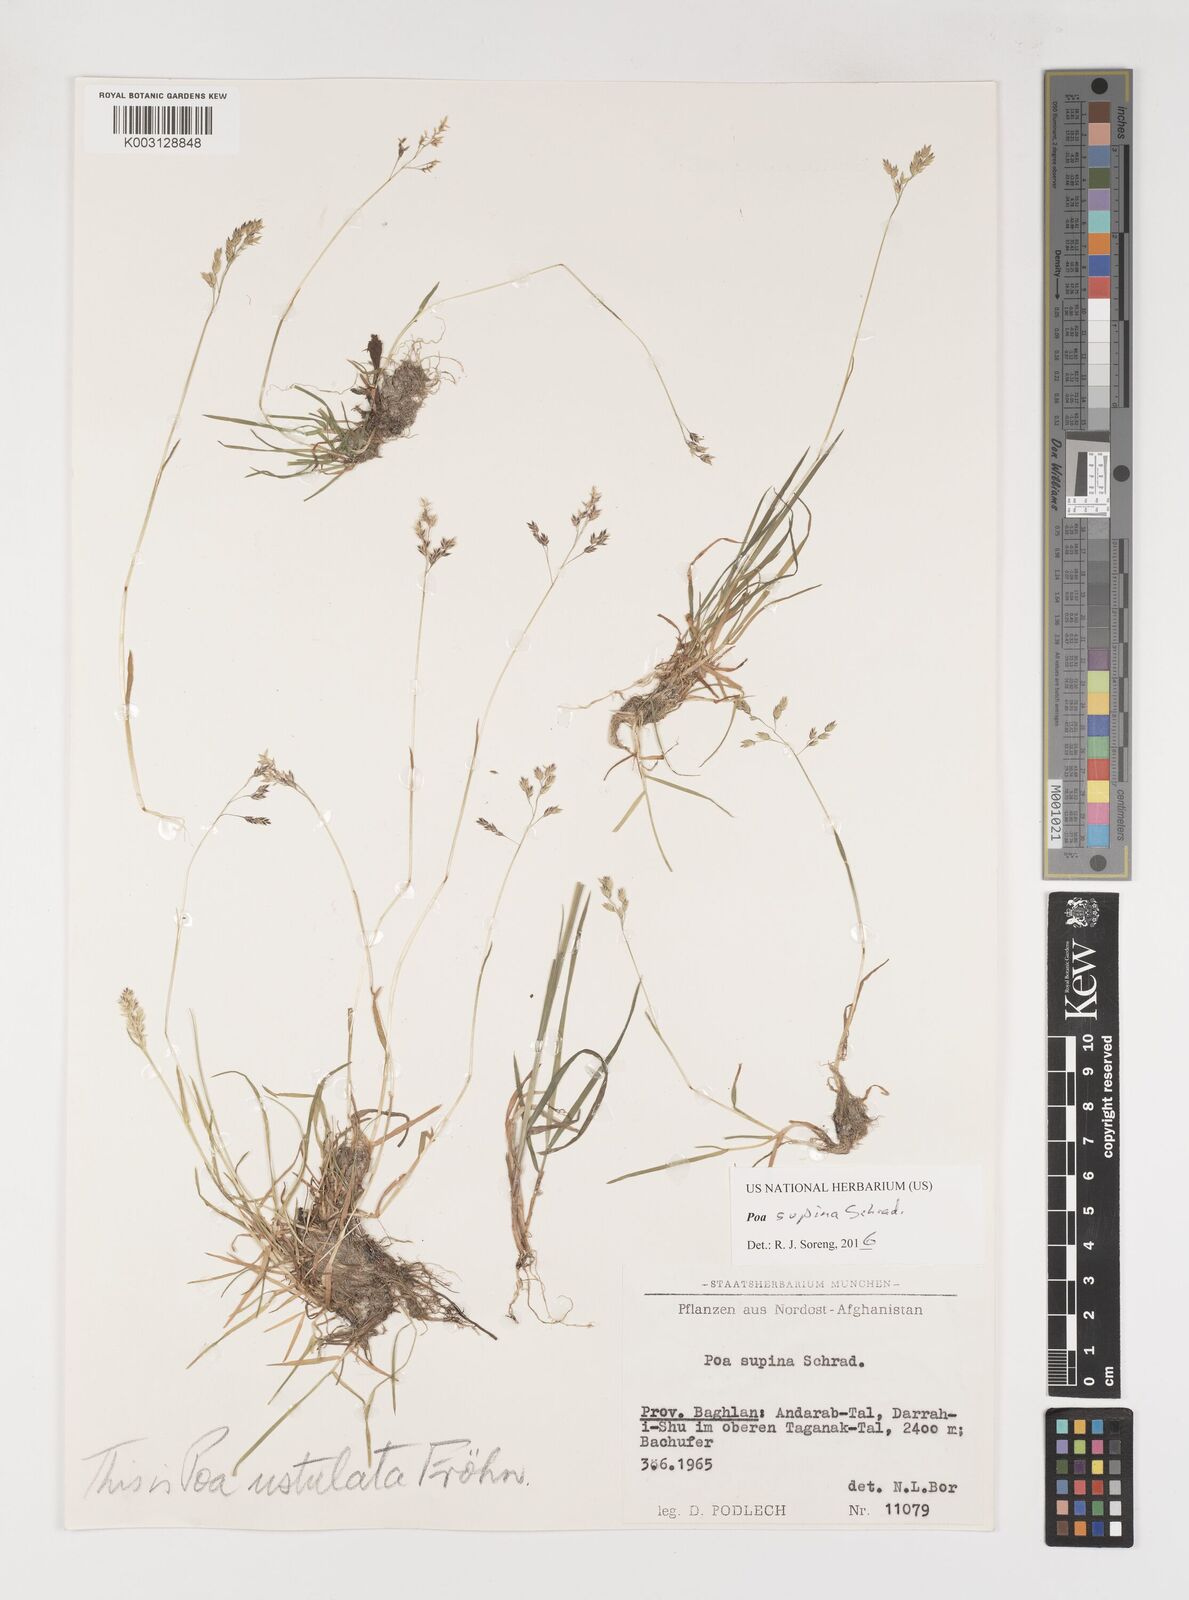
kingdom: Plantae
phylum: Tracheophyta
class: Liliopsida
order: Poales
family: Poaceae
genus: Poa
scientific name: Poa supina
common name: Supina bluegrass
